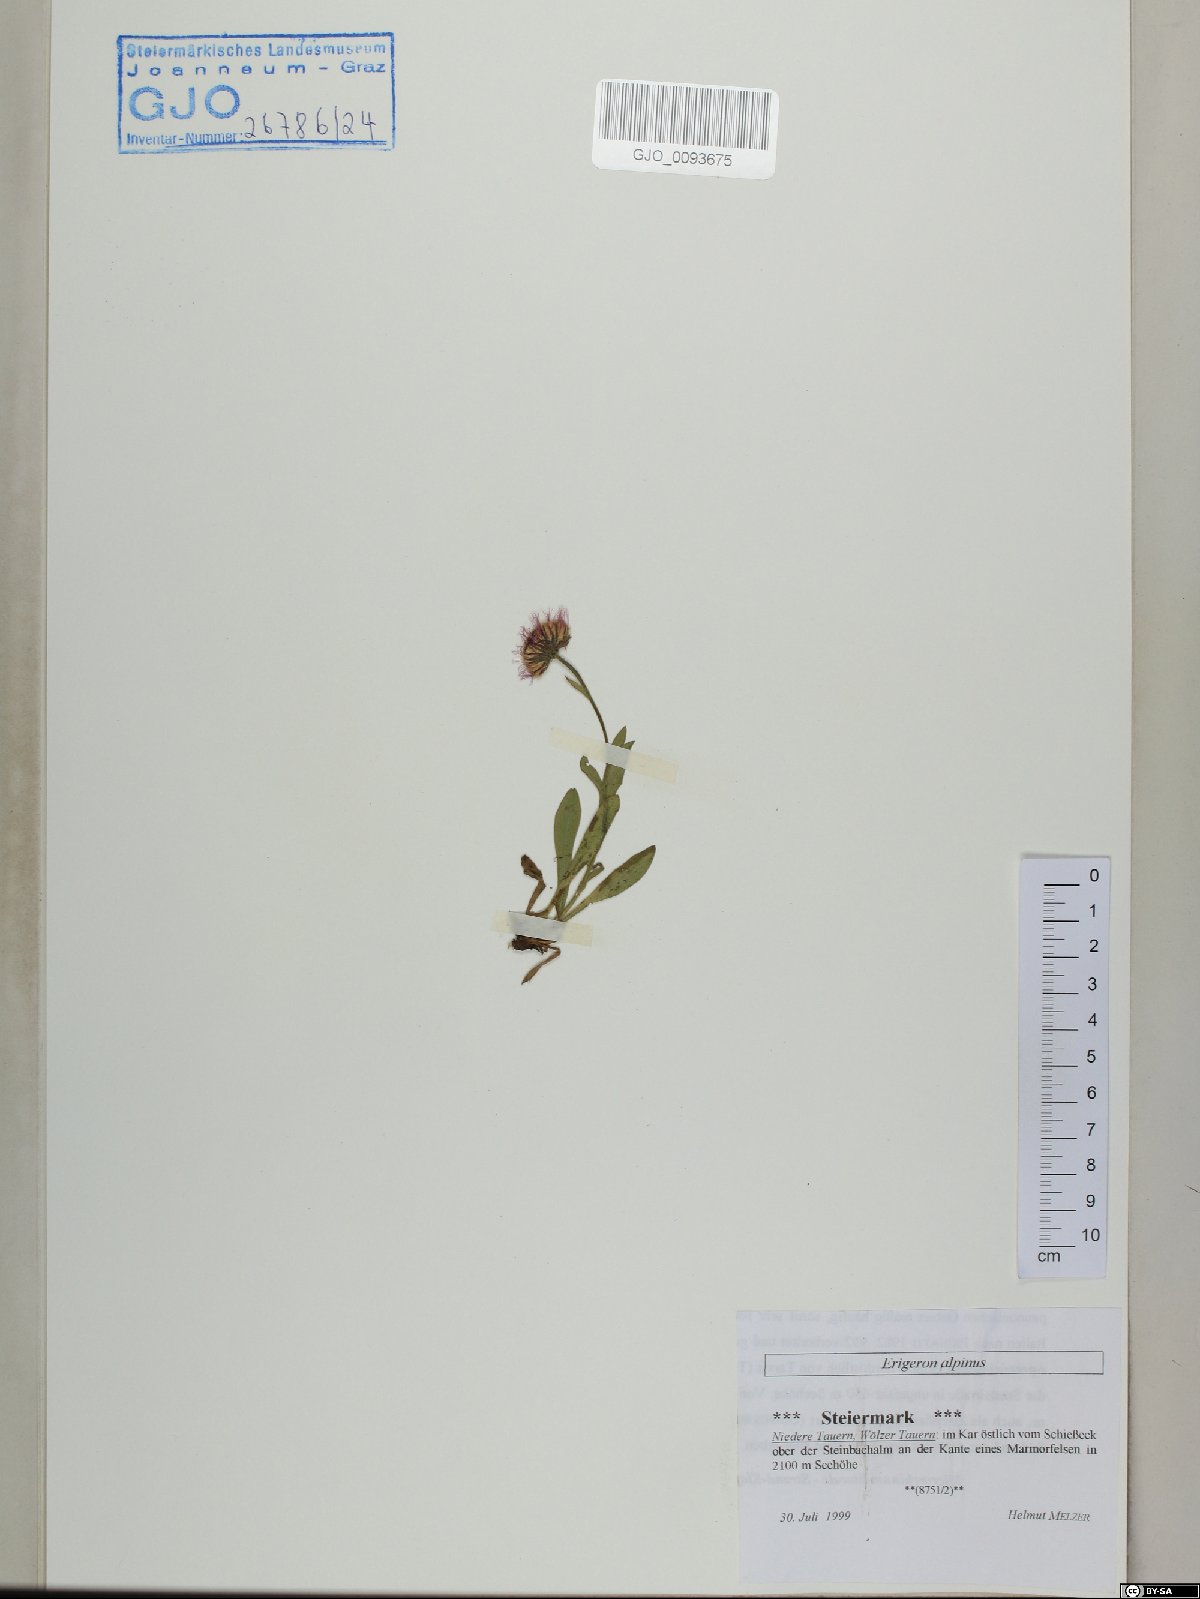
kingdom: Plantae
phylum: Tracheophyta
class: Magnoliopsida
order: Asterales
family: Asteraceae
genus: Erigeron
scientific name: Erigeron alpinus
